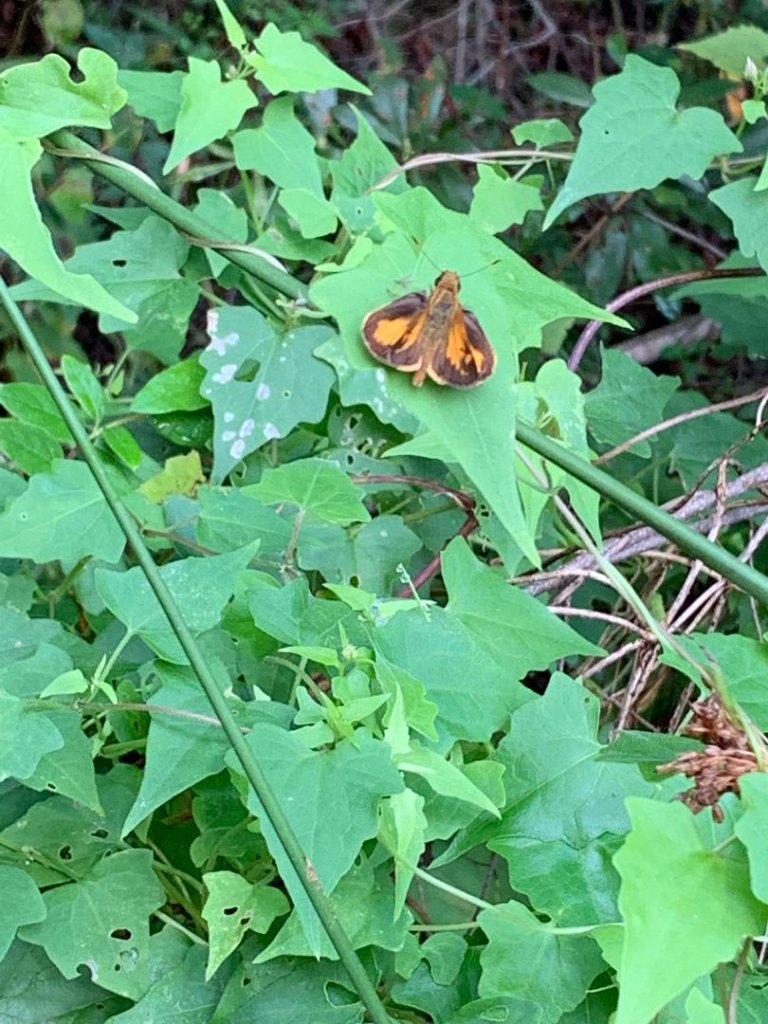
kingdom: Animalia
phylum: Arthropoda
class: Insecta
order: Lepidoptera
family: Hesperiidae
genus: Lon
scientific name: Lon zabulon
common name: Zabulon Skipper
